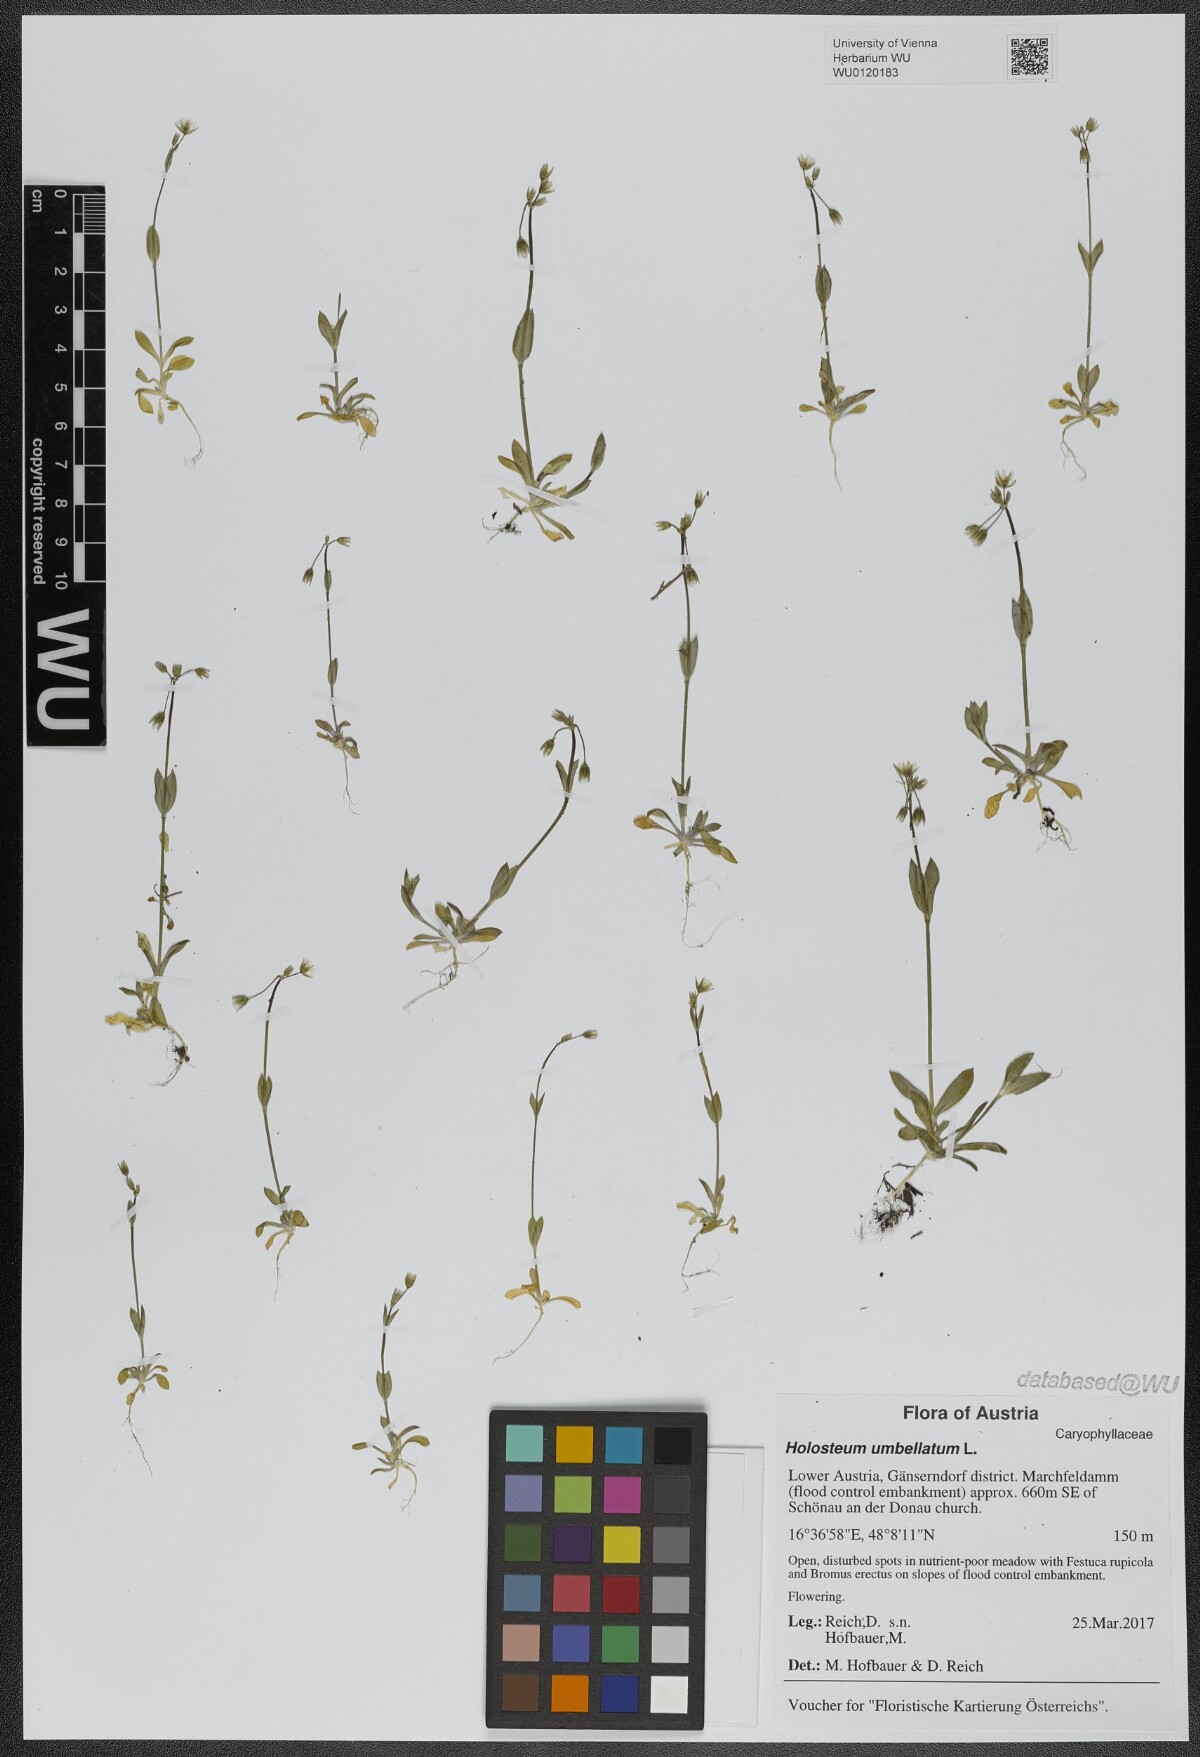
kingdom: Plantae
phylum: Tracheophyta
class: Magnoliopsida
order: Caryophyllales
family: Caryophyllaceae
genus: Holosteum
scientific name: Holosteum umbellatum
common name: Jagged chickweed
